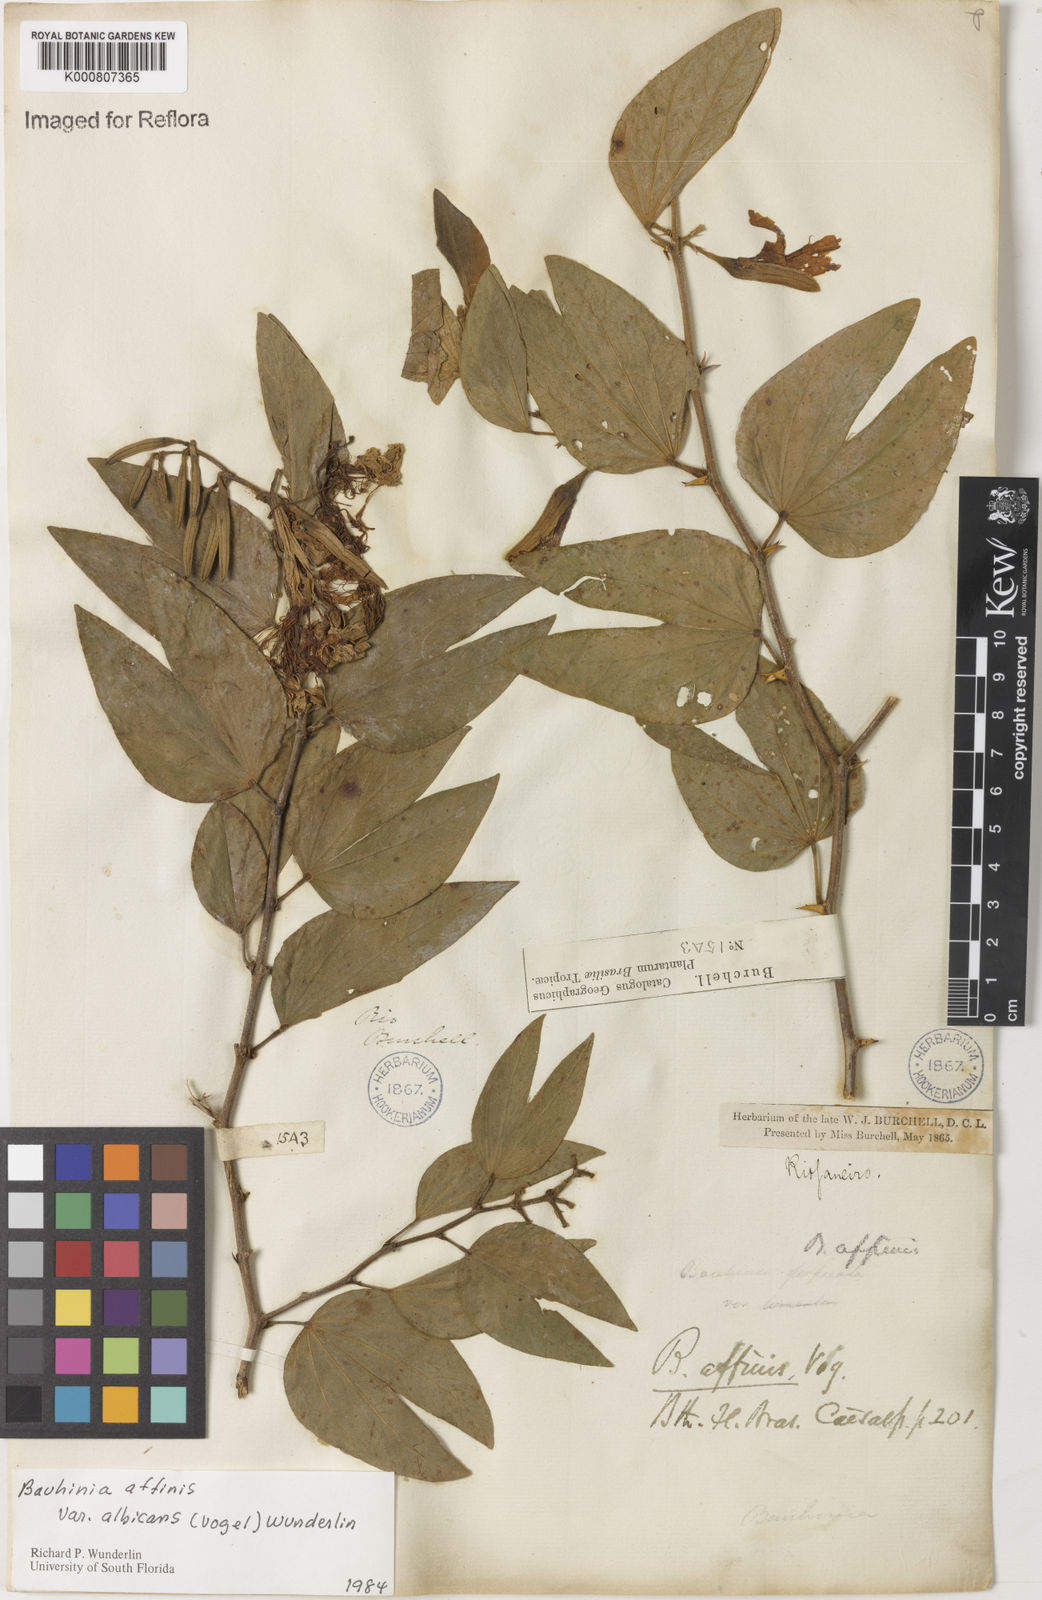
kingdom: Plantae
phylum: Tracheophyta
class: Magnoliopsida
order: Fabales
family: Fabaceae
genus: Bauhinia
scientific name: Bauhinia affinis
